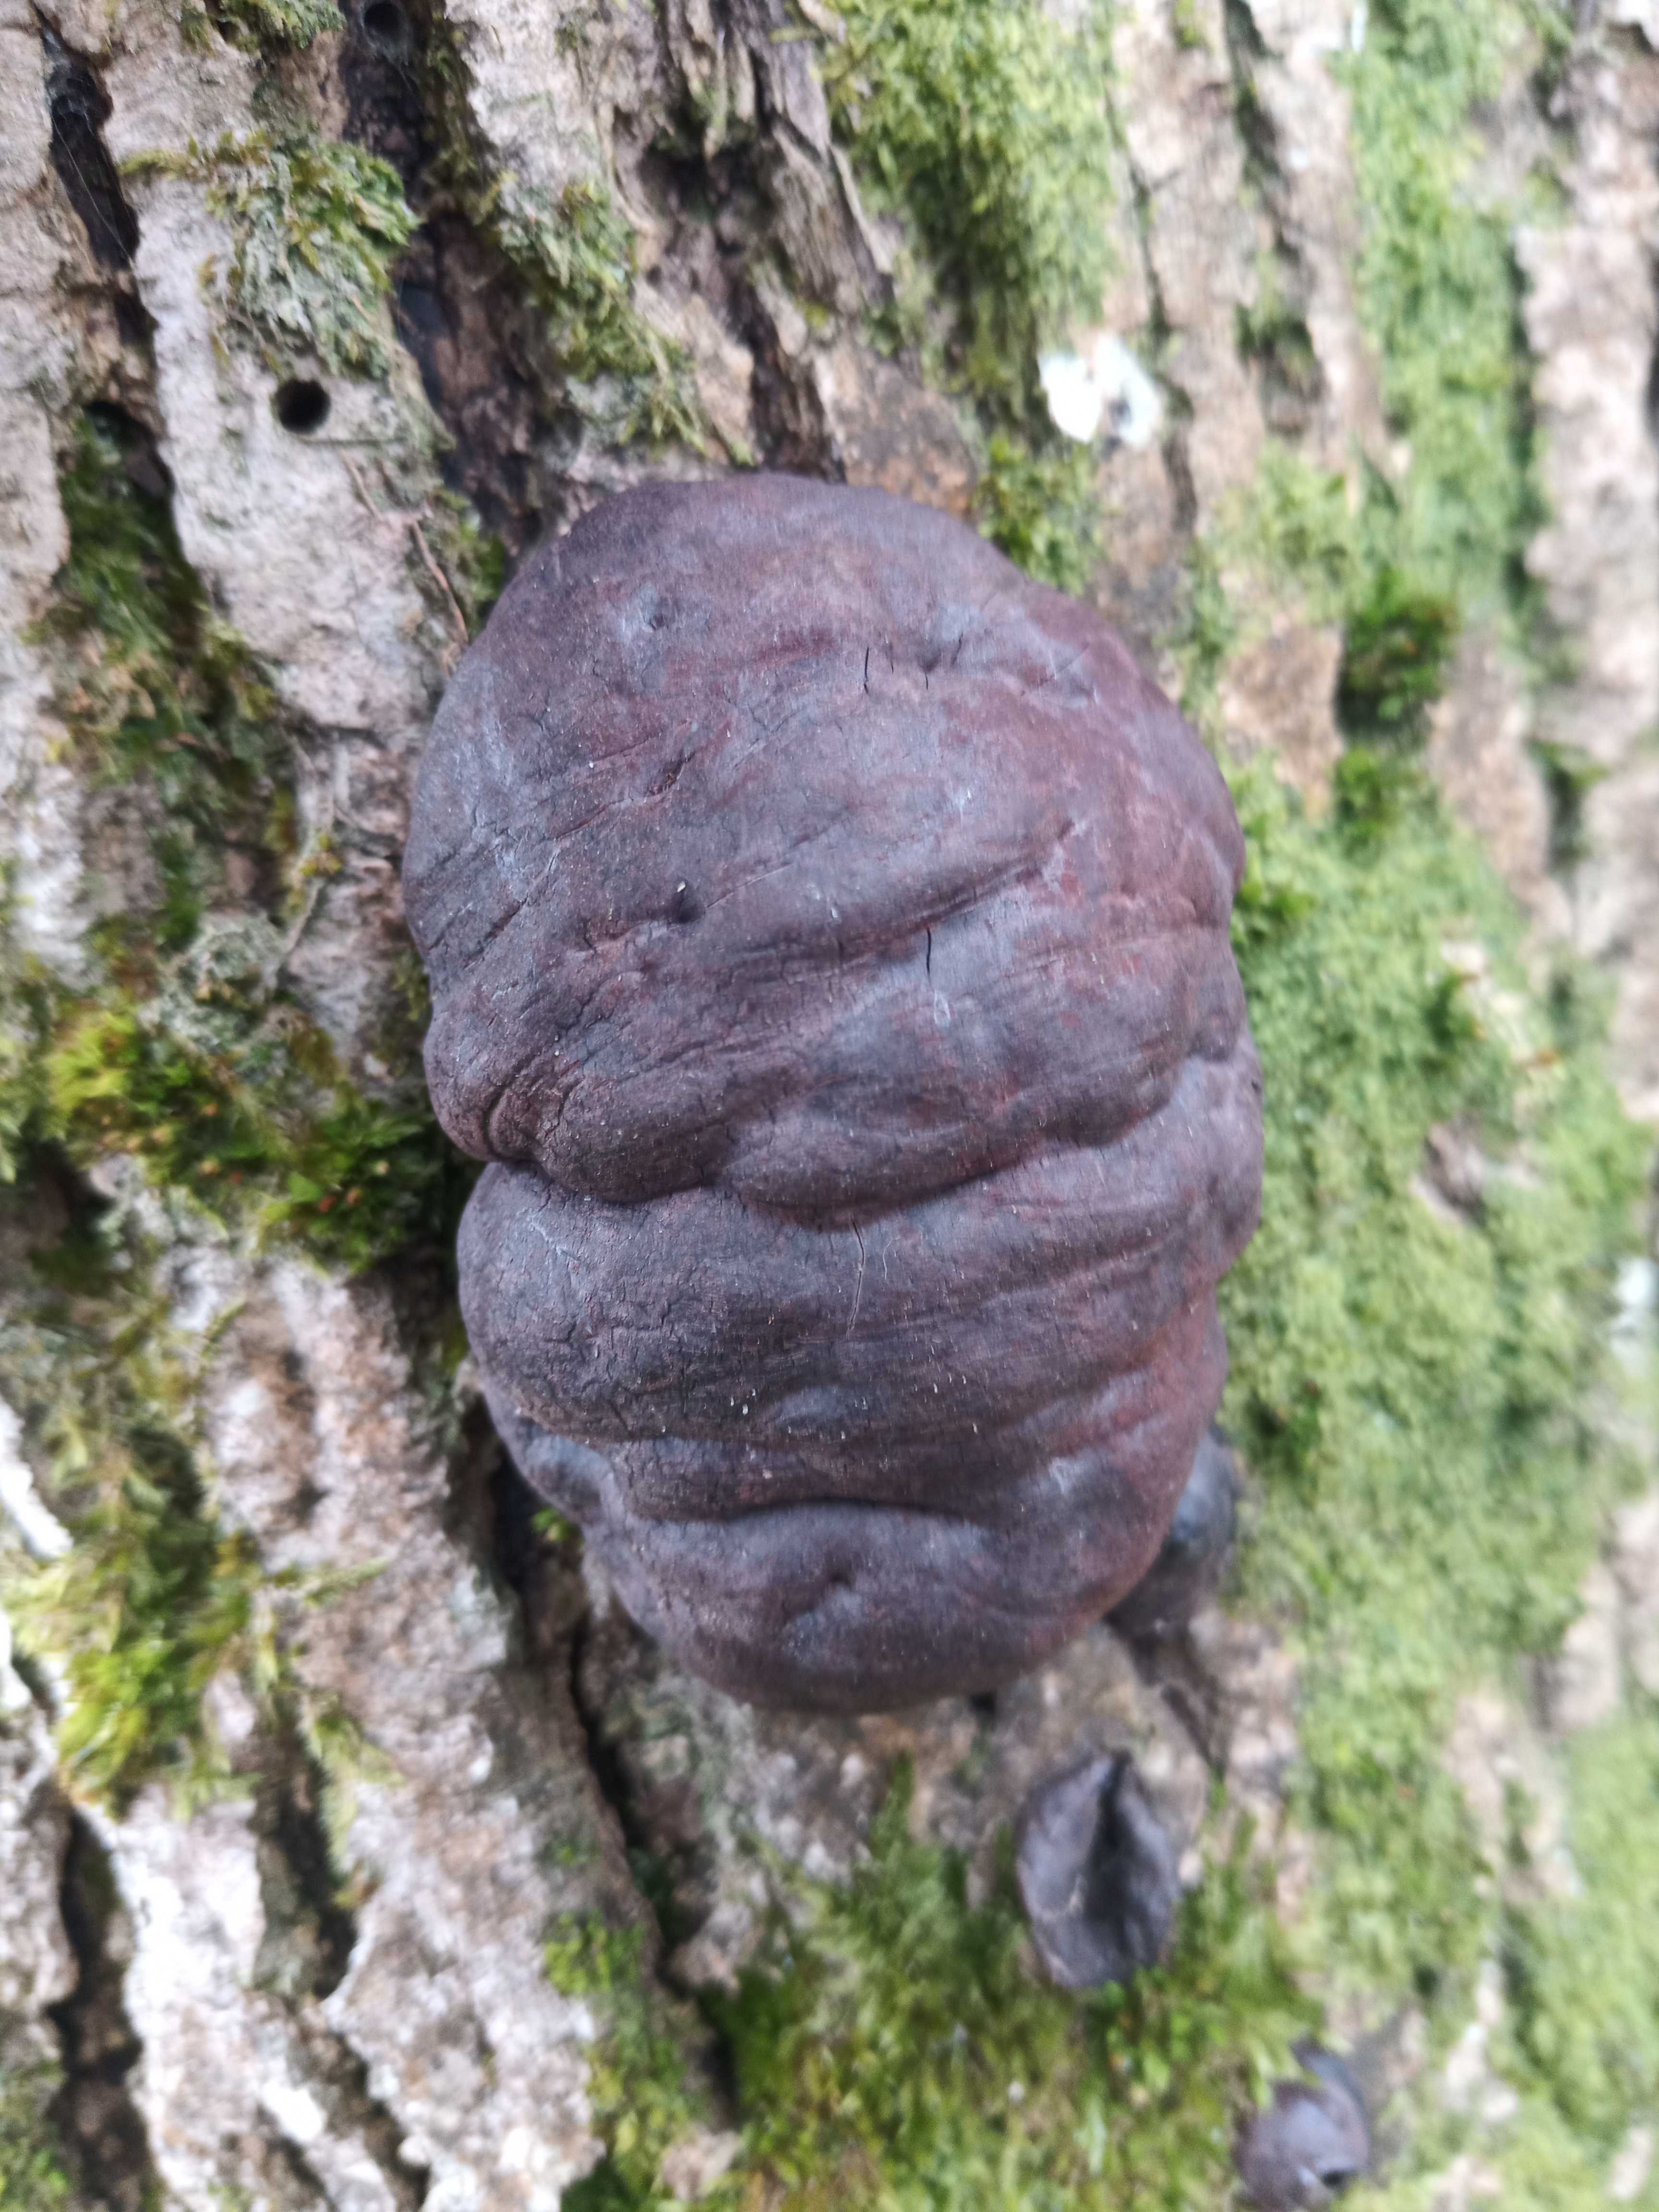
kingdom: Fungi
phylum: Ascomycota
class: Sordariomycetes
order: Xylariales
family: Hypoxylaceae
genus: Daldinia
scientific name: Daldinia concentrica
